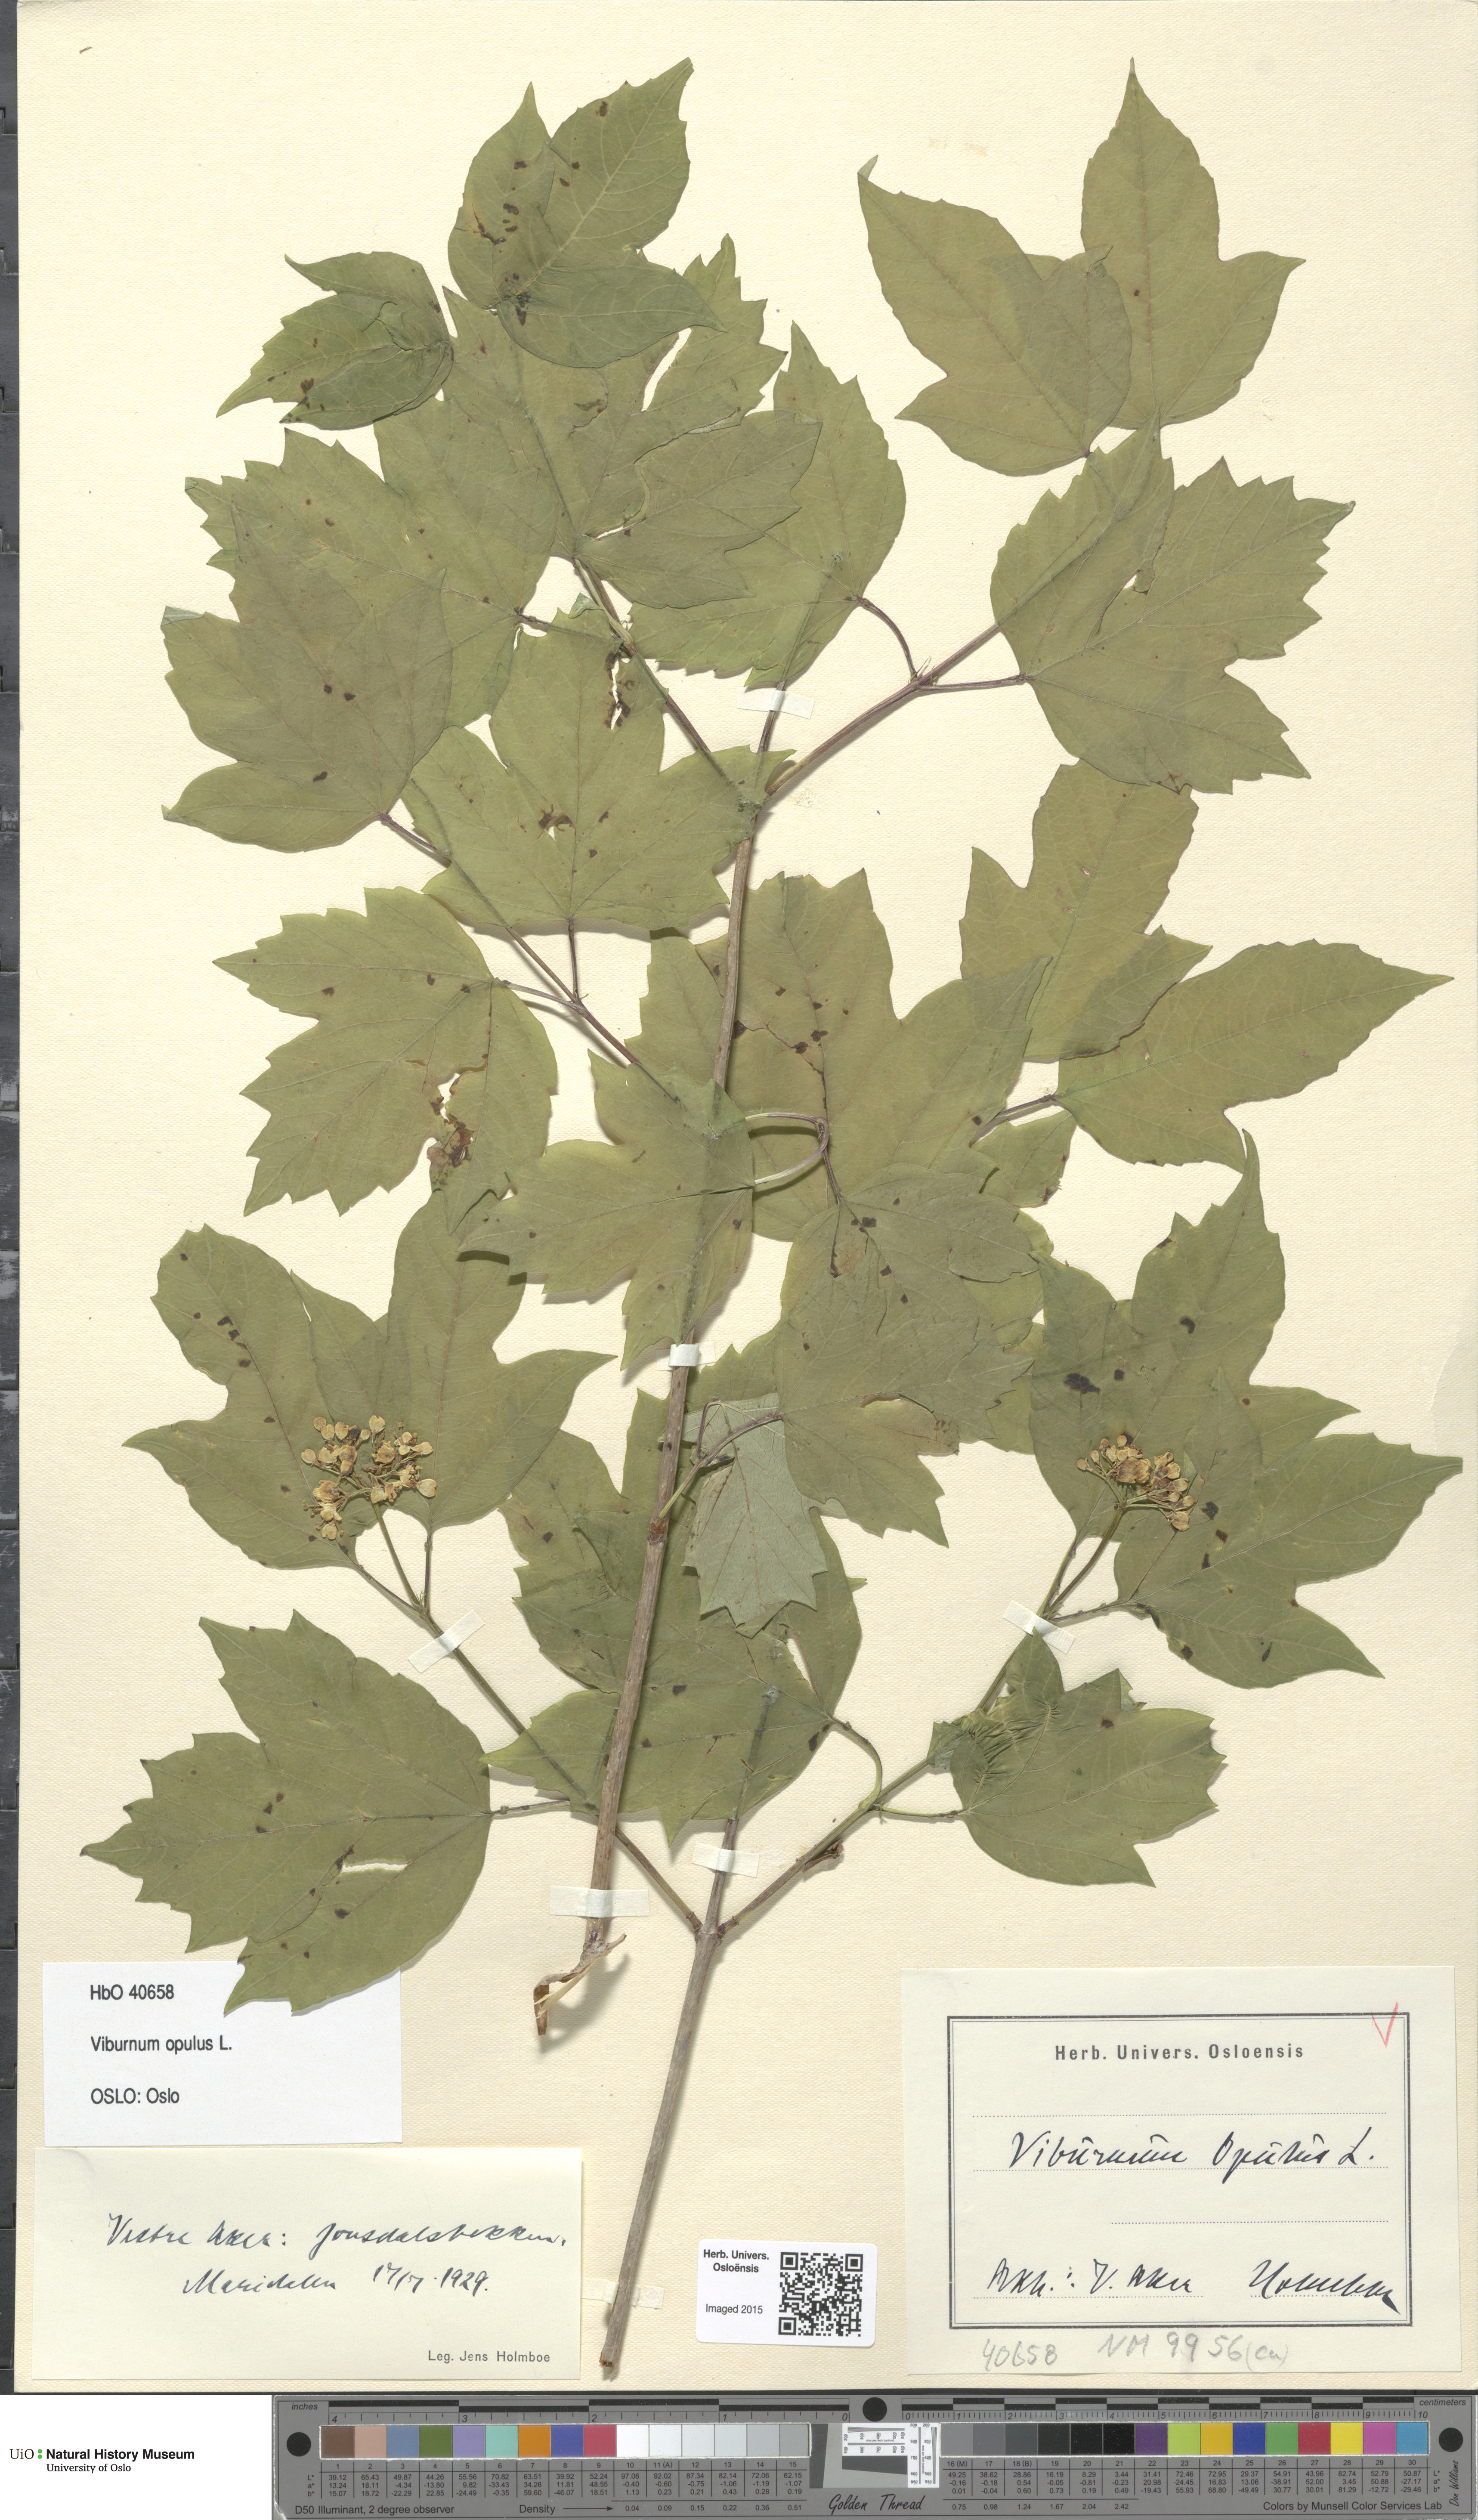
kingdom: Plantae
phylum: Tracheophyta
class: Magnoliopsida
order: Dipsacales
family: Viburnaceae
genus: Viburnum
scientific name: Viburnum opulus
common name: Guelder-rose
